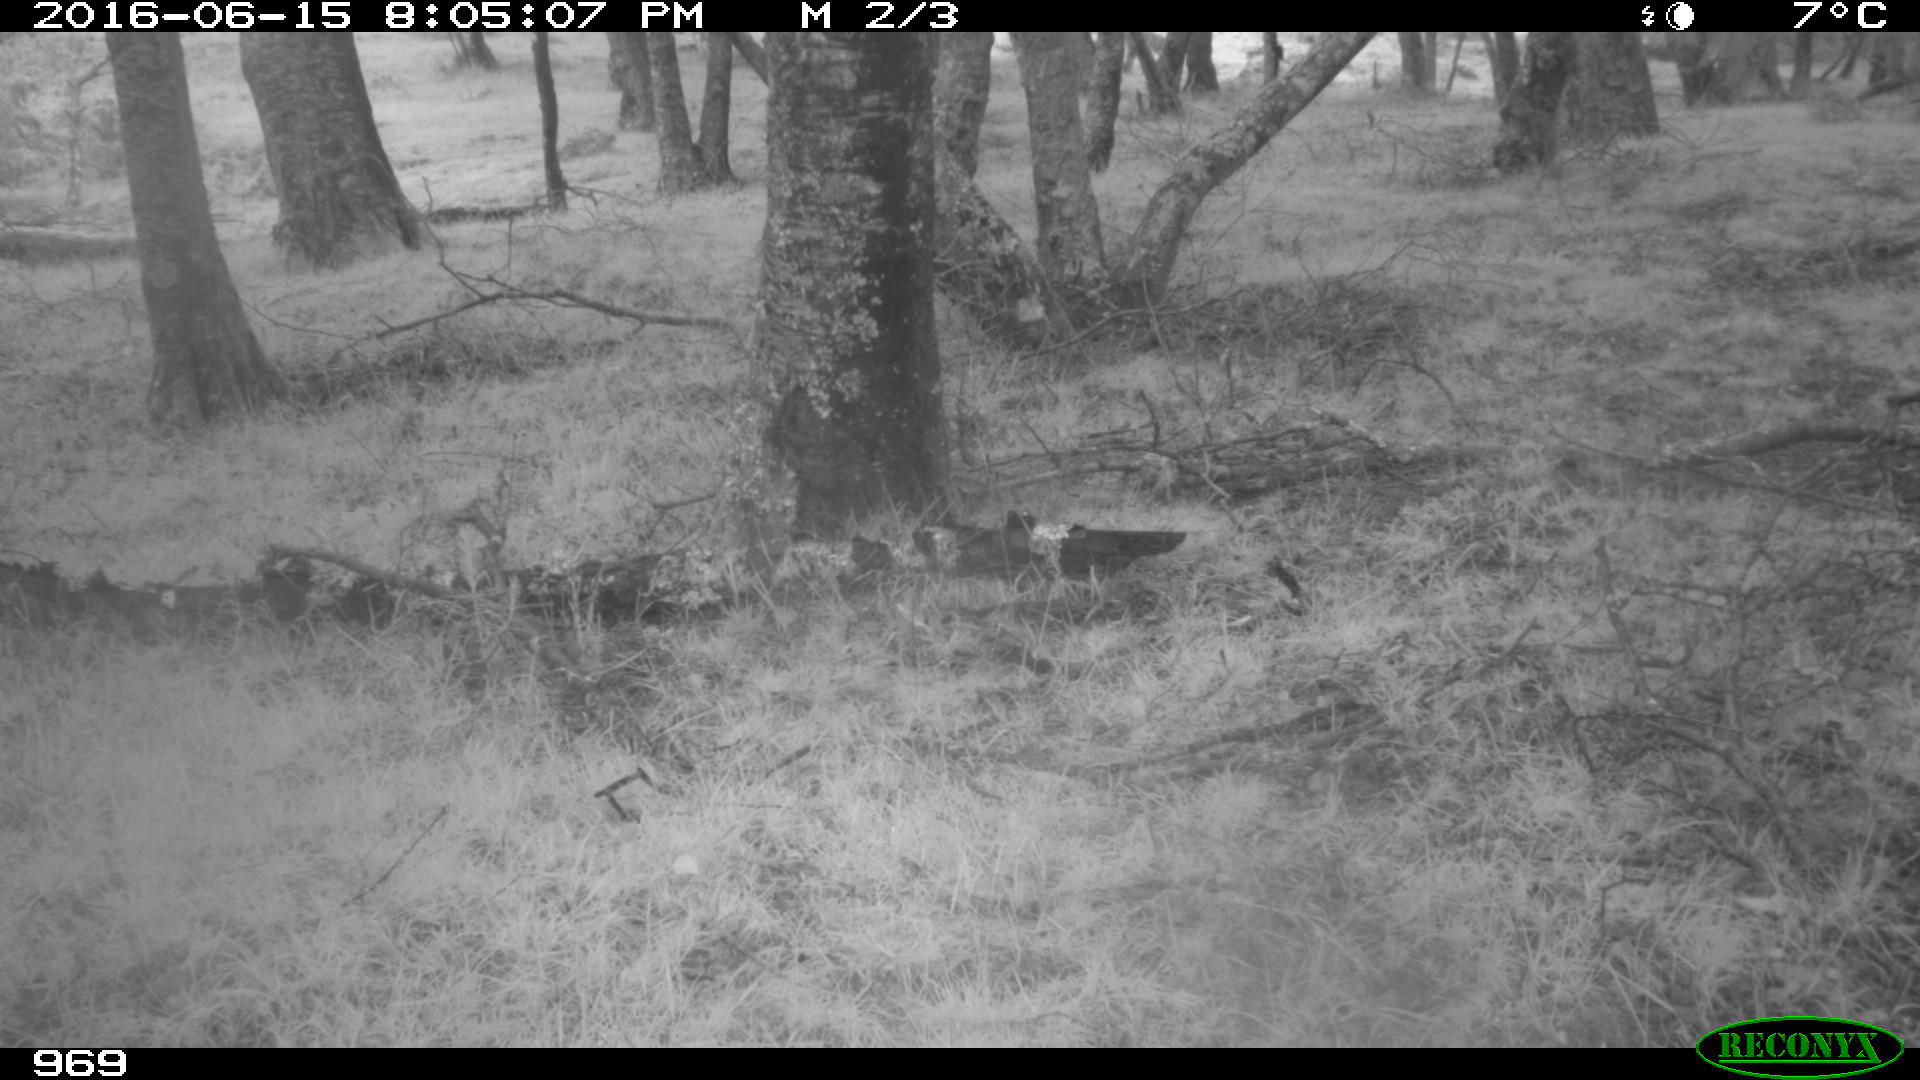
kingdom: Animalia
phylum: Chordata
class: Mammalia
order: Artiodactyla
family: Cervidae
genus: Capreolus
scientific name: Capreolus capreolus
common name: Western roe deer
